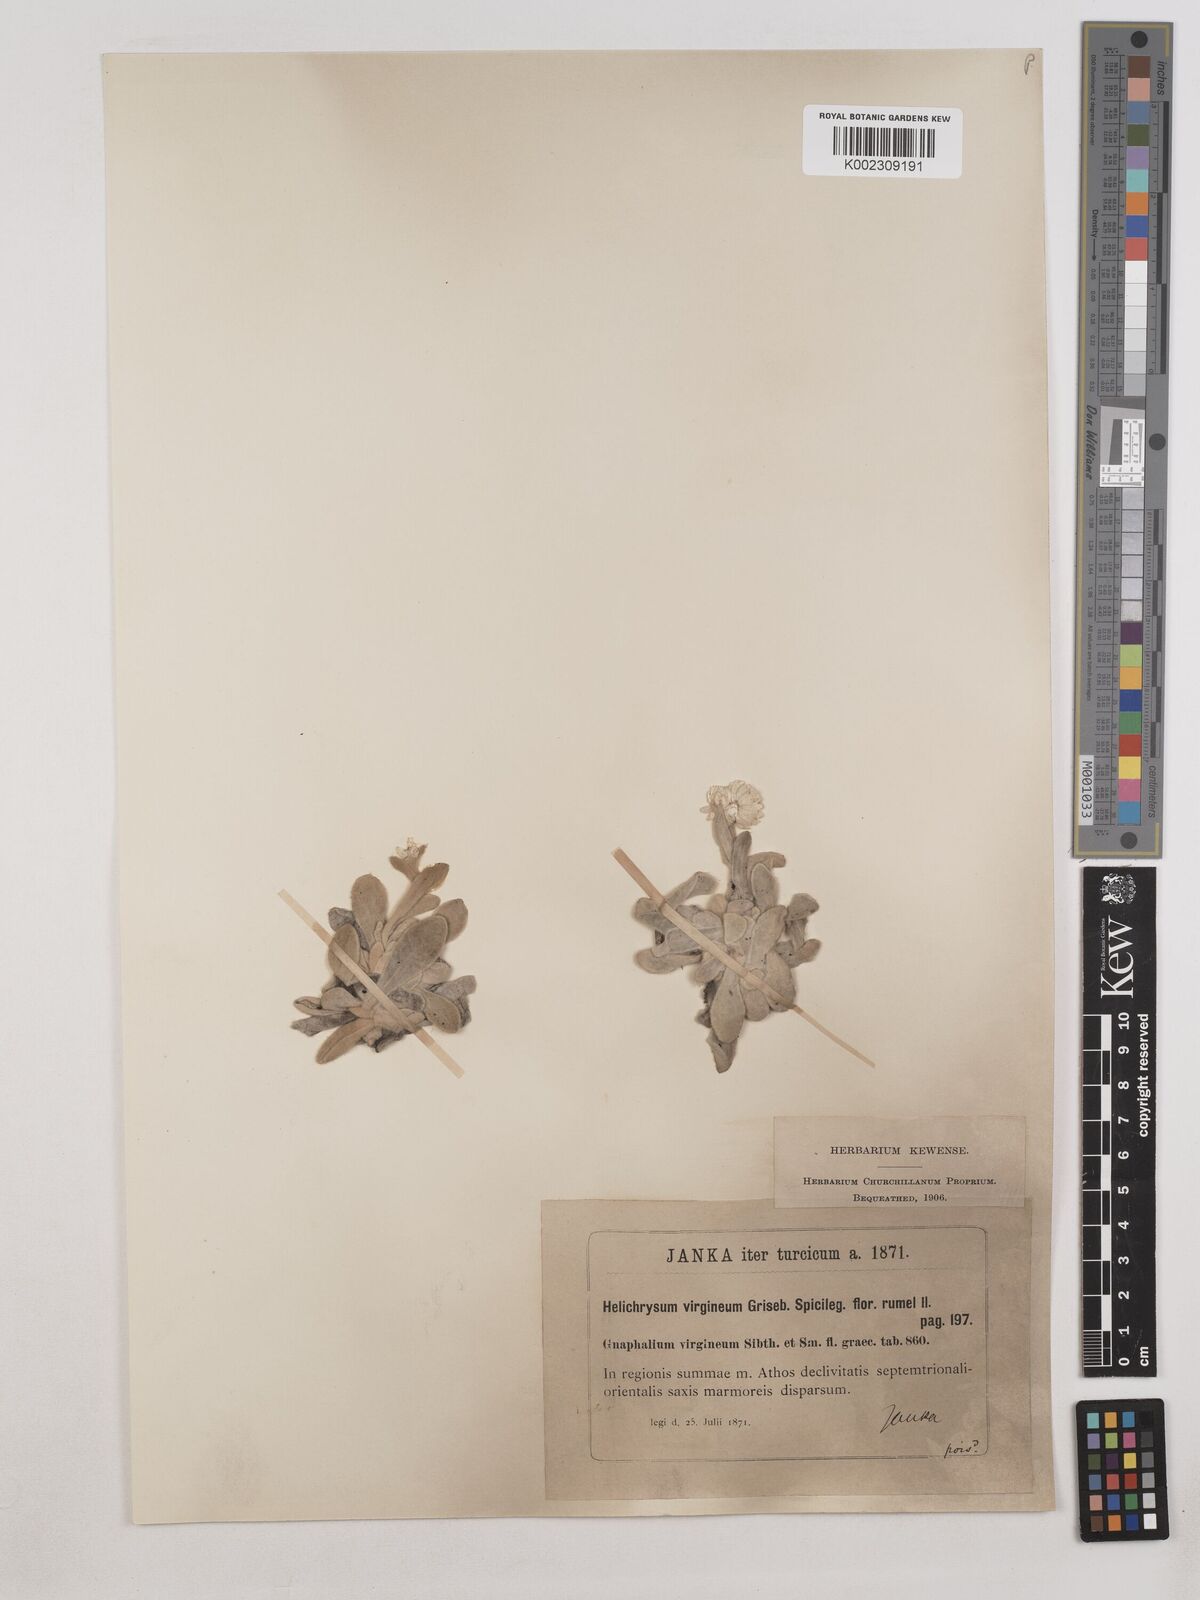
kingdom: Plantae
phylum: Tracheophyta
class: Magnoliopsida
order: Asterales
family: Asteraceae
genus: Helichrysum
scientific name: Helichrysum sibthorpii
